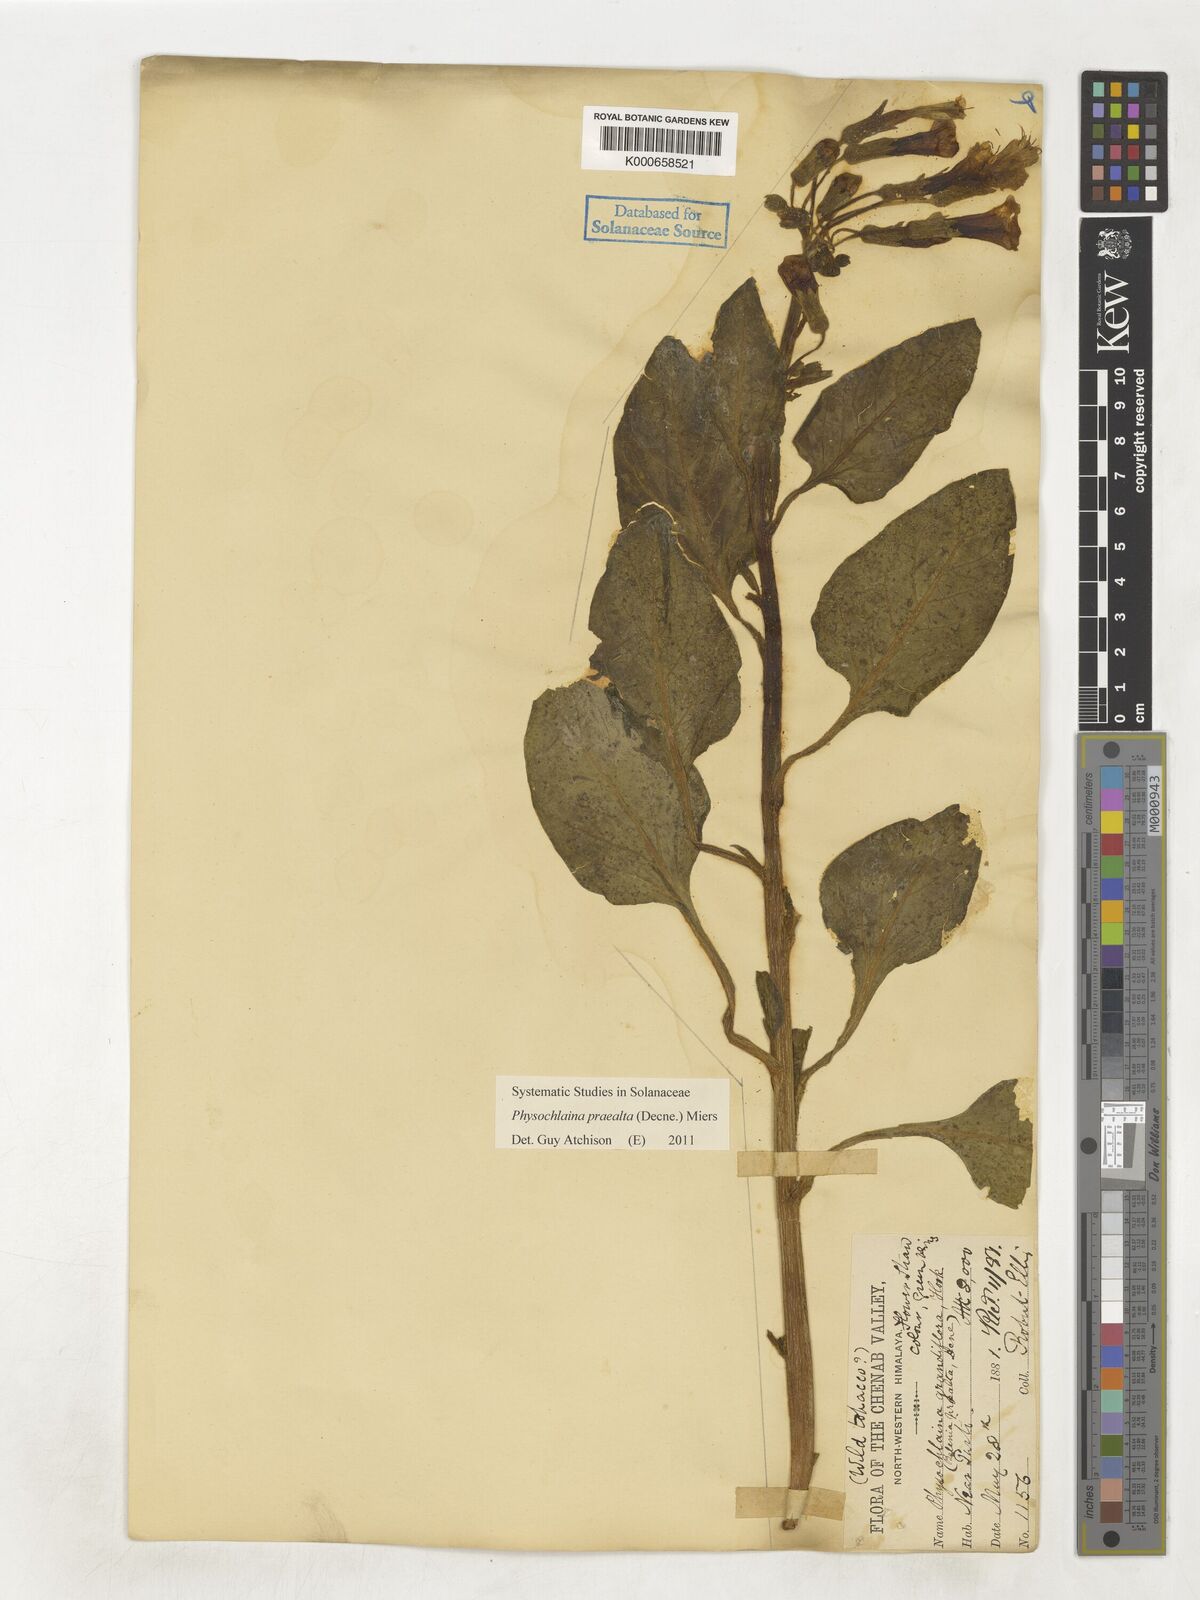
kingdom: Plantae
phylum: Tracheophyta
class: Magnoliopsida
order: Solanales
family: Solanaceae
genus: Physochlaina
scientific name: Physochlaina praealta
